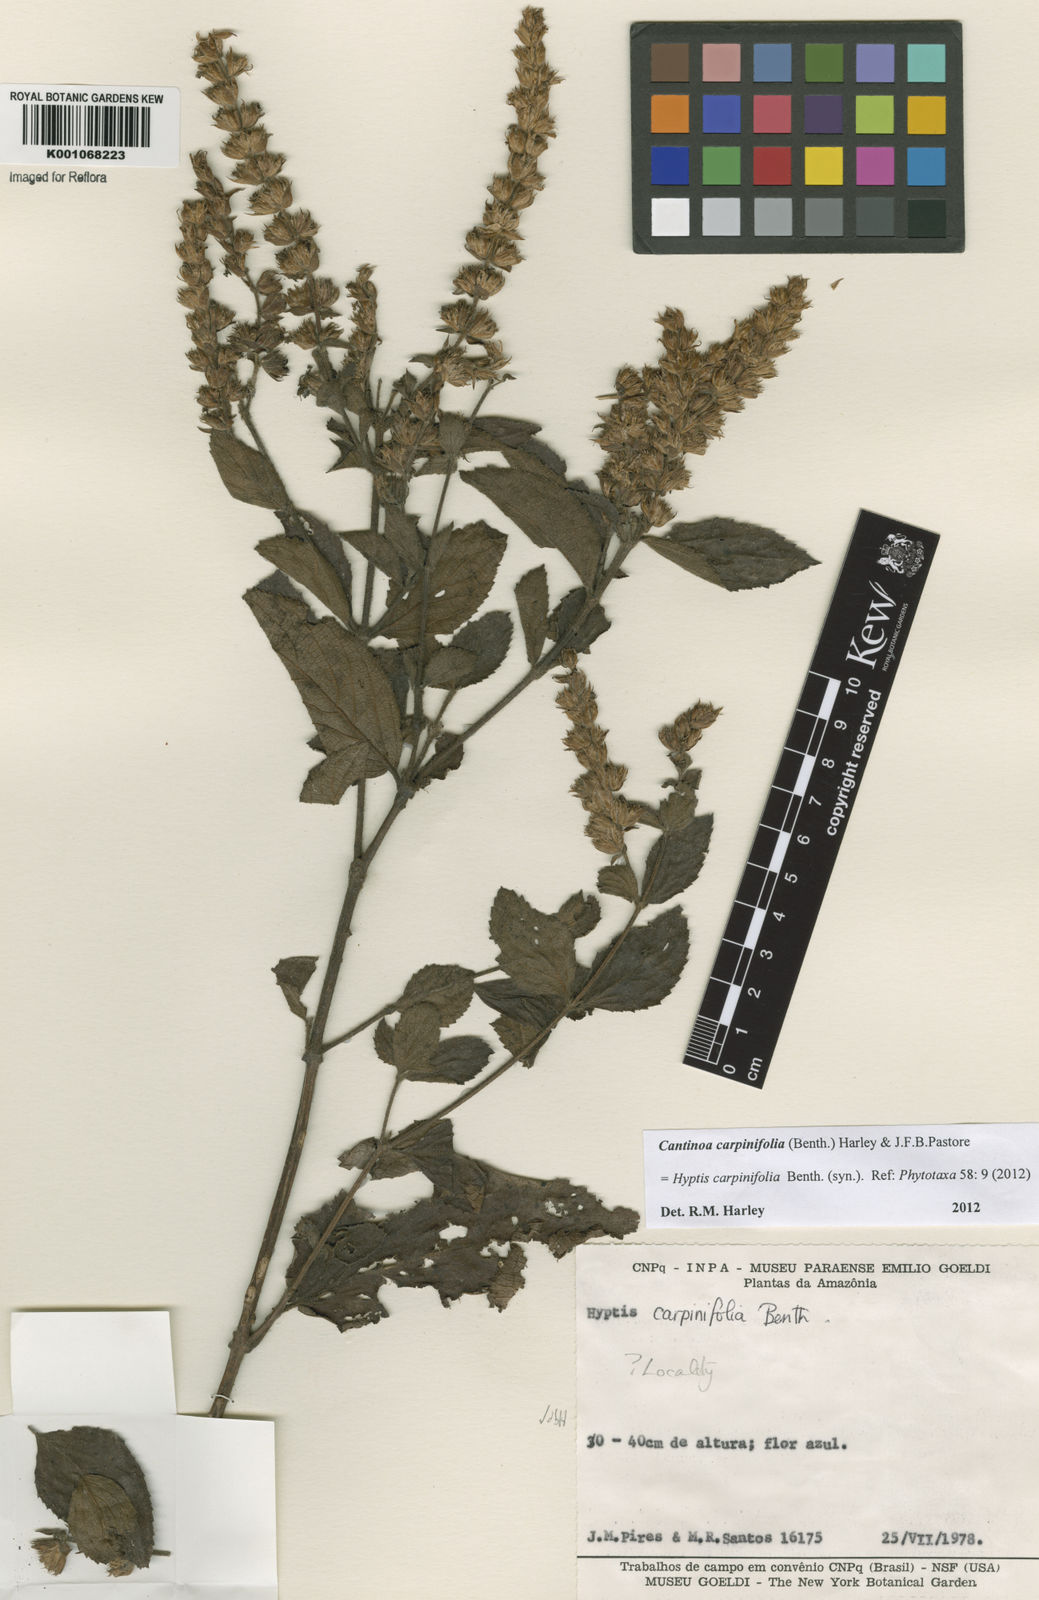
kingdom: Plantae
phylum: Tracheophyta
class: Magnoliopsida
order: Lamiales
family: Lamiaceae
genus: Cantinoa
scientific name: Cantinoa carpinifolia
